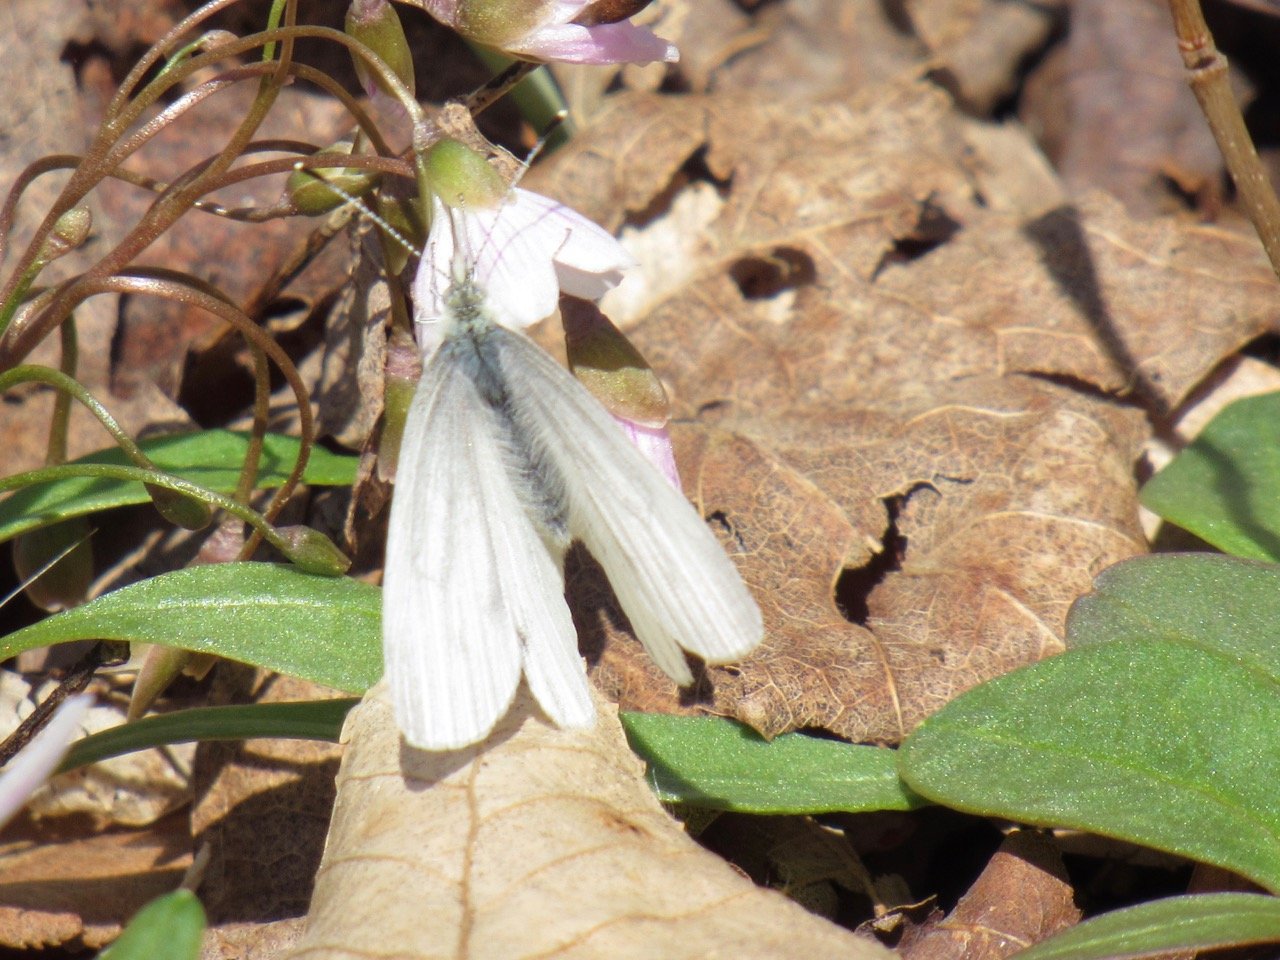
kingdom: Animalia
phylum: Arthropoda
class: Insecta
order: Lepidoptera
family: Pieridae
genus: Pieris
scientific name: Pieris virginiensis
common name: West Virginia White
